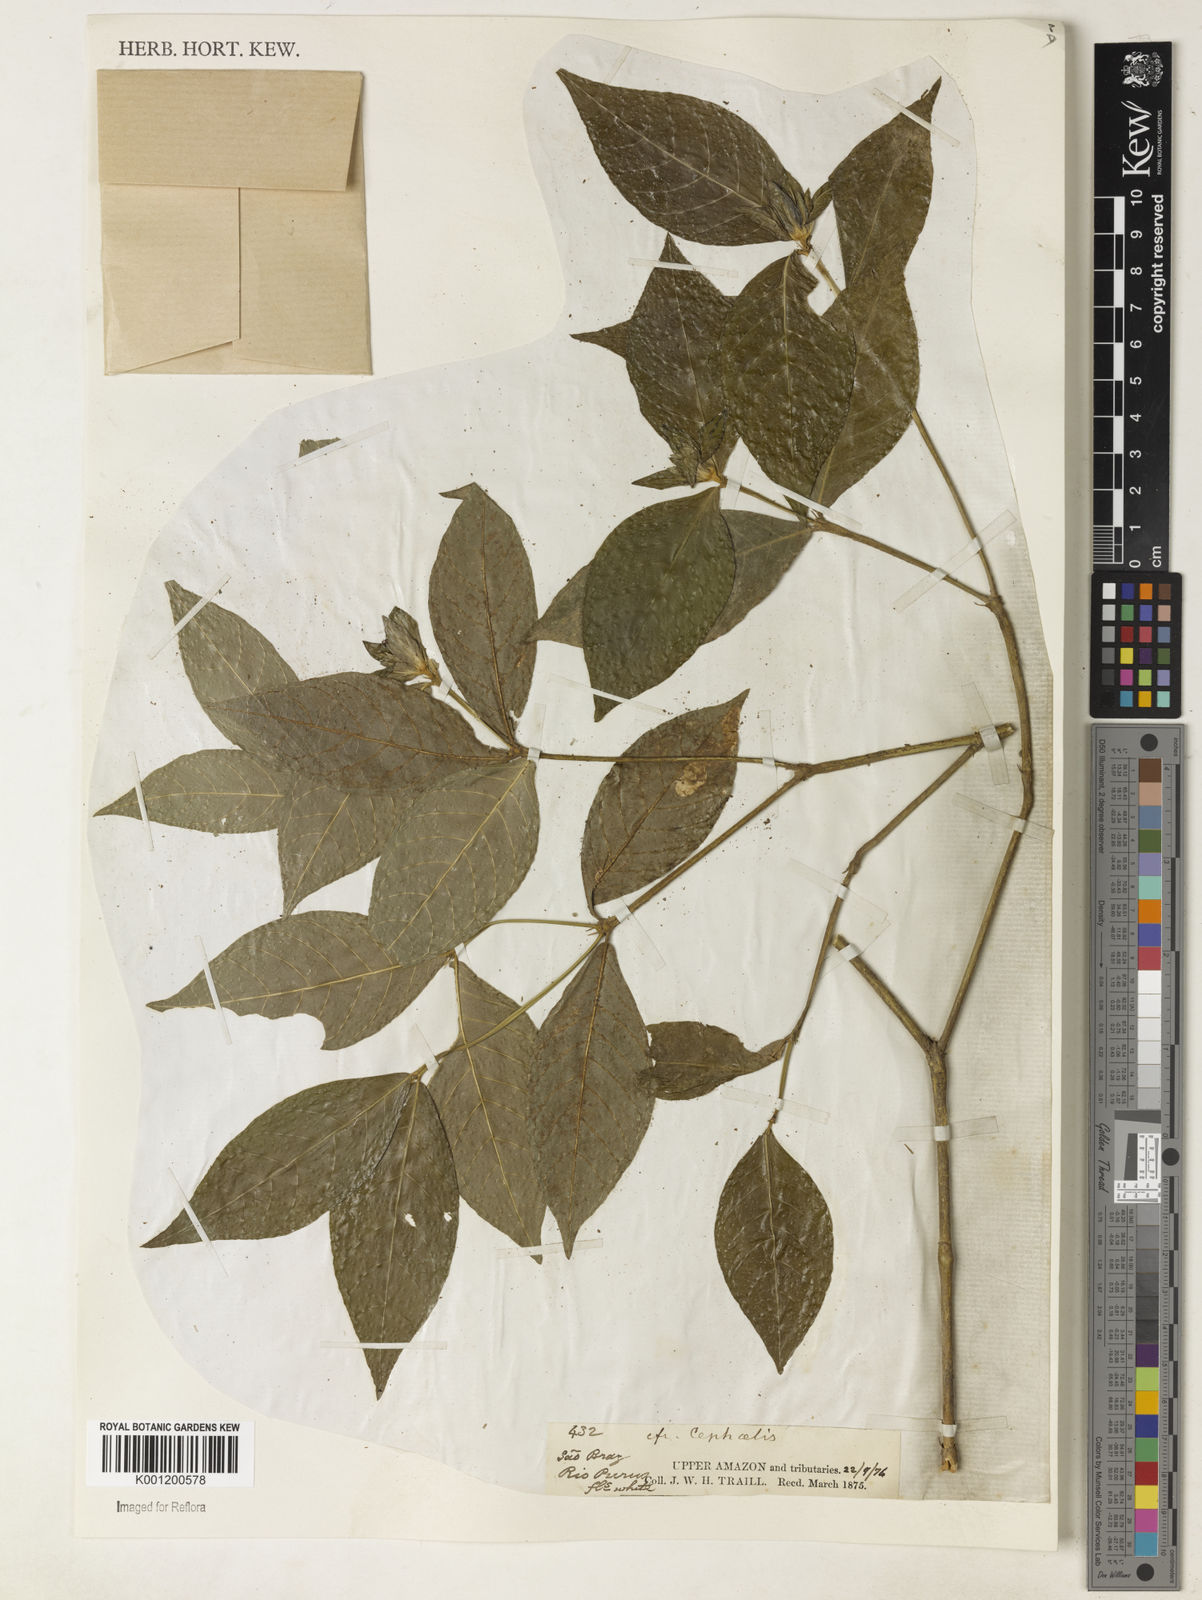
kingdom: Plantae
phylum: Tracheophyta
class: Magnoliopsida
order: Gentianales
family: Rubiaceae
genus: Psychotria
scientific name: Psychotria
